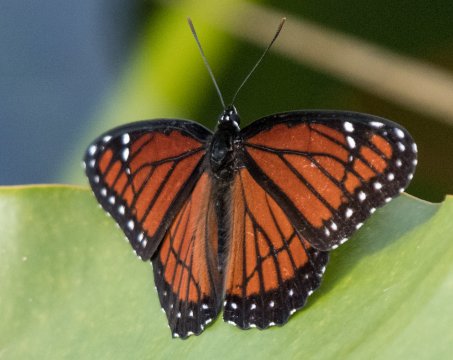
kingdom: Animalia
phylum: Arthropoda
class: Insecta
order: Lepidoptera
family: Nymphalidae
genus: Limenitis
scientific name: Limenitis archippus
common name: Viceroy
